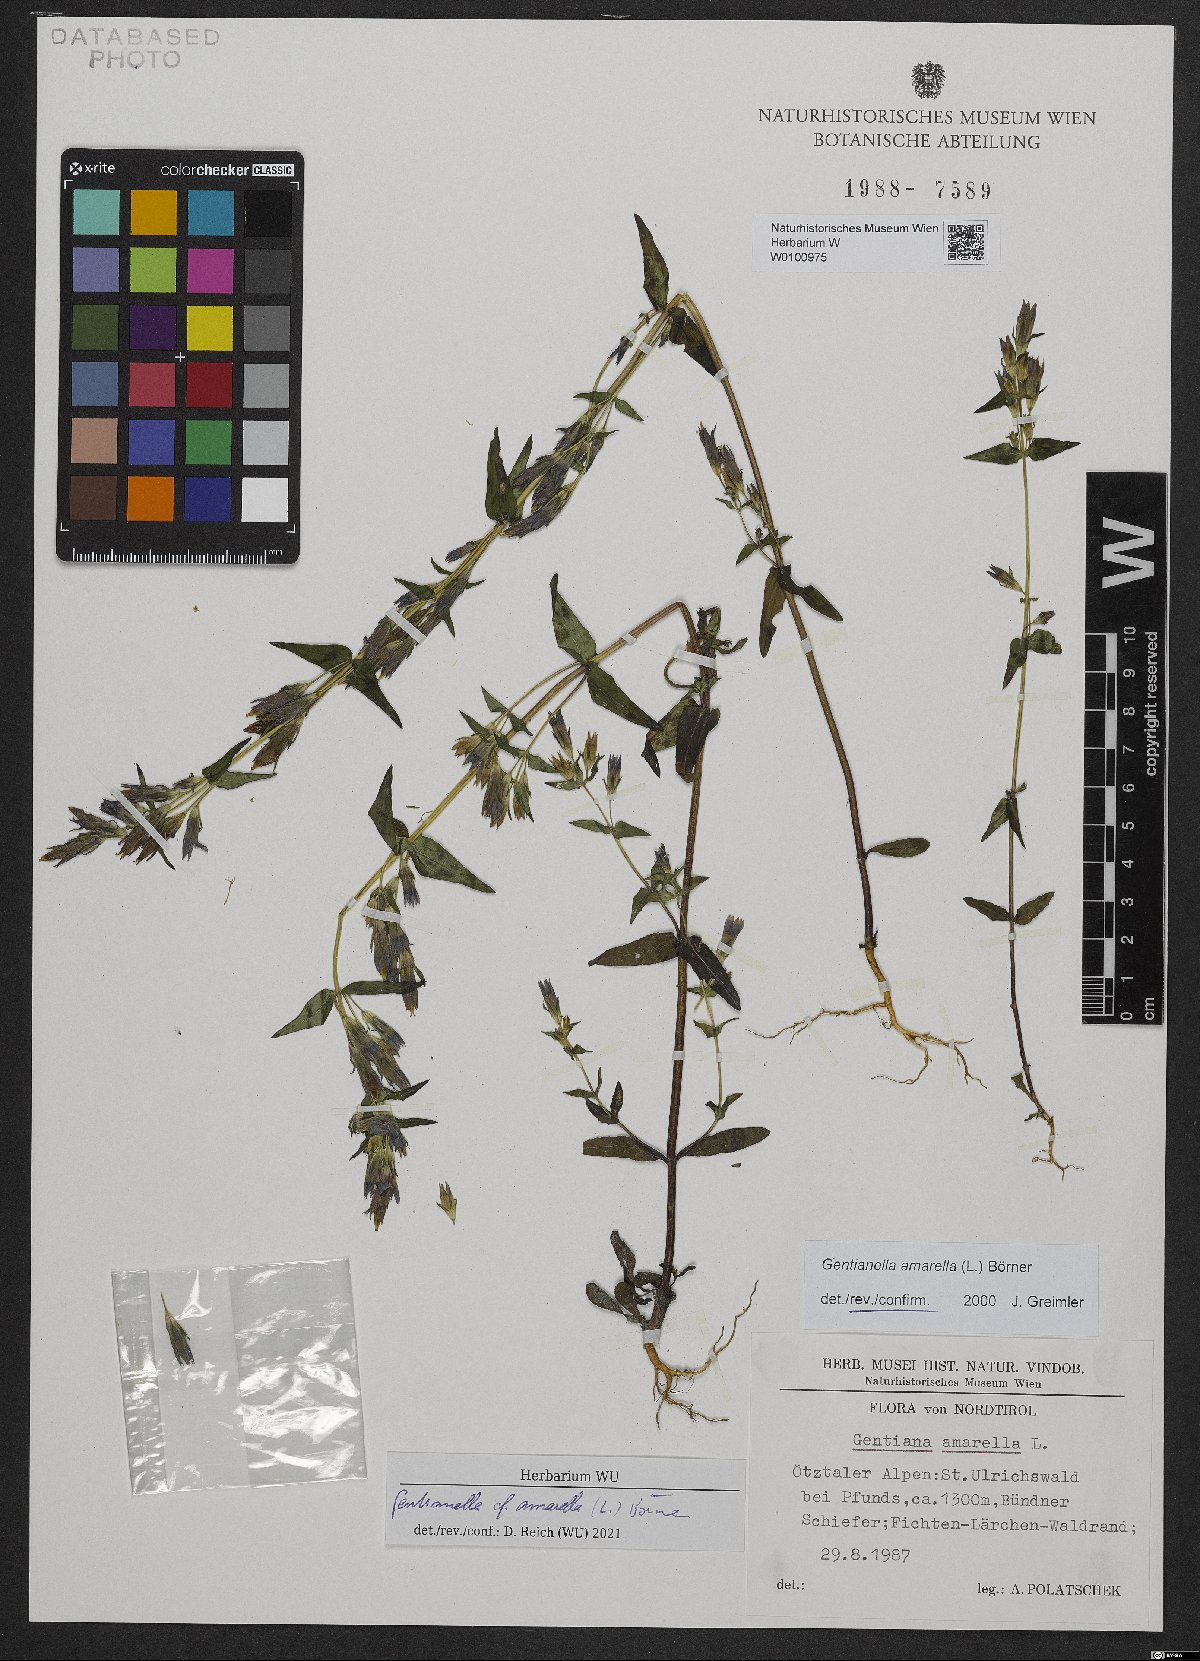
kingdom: Plantae
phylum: Tracheophyta
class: Magnoliopsida
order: Gentianales
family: Gentianaceae
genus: Gentianella
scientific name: Gentianella amarella
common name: Autumn gentian
